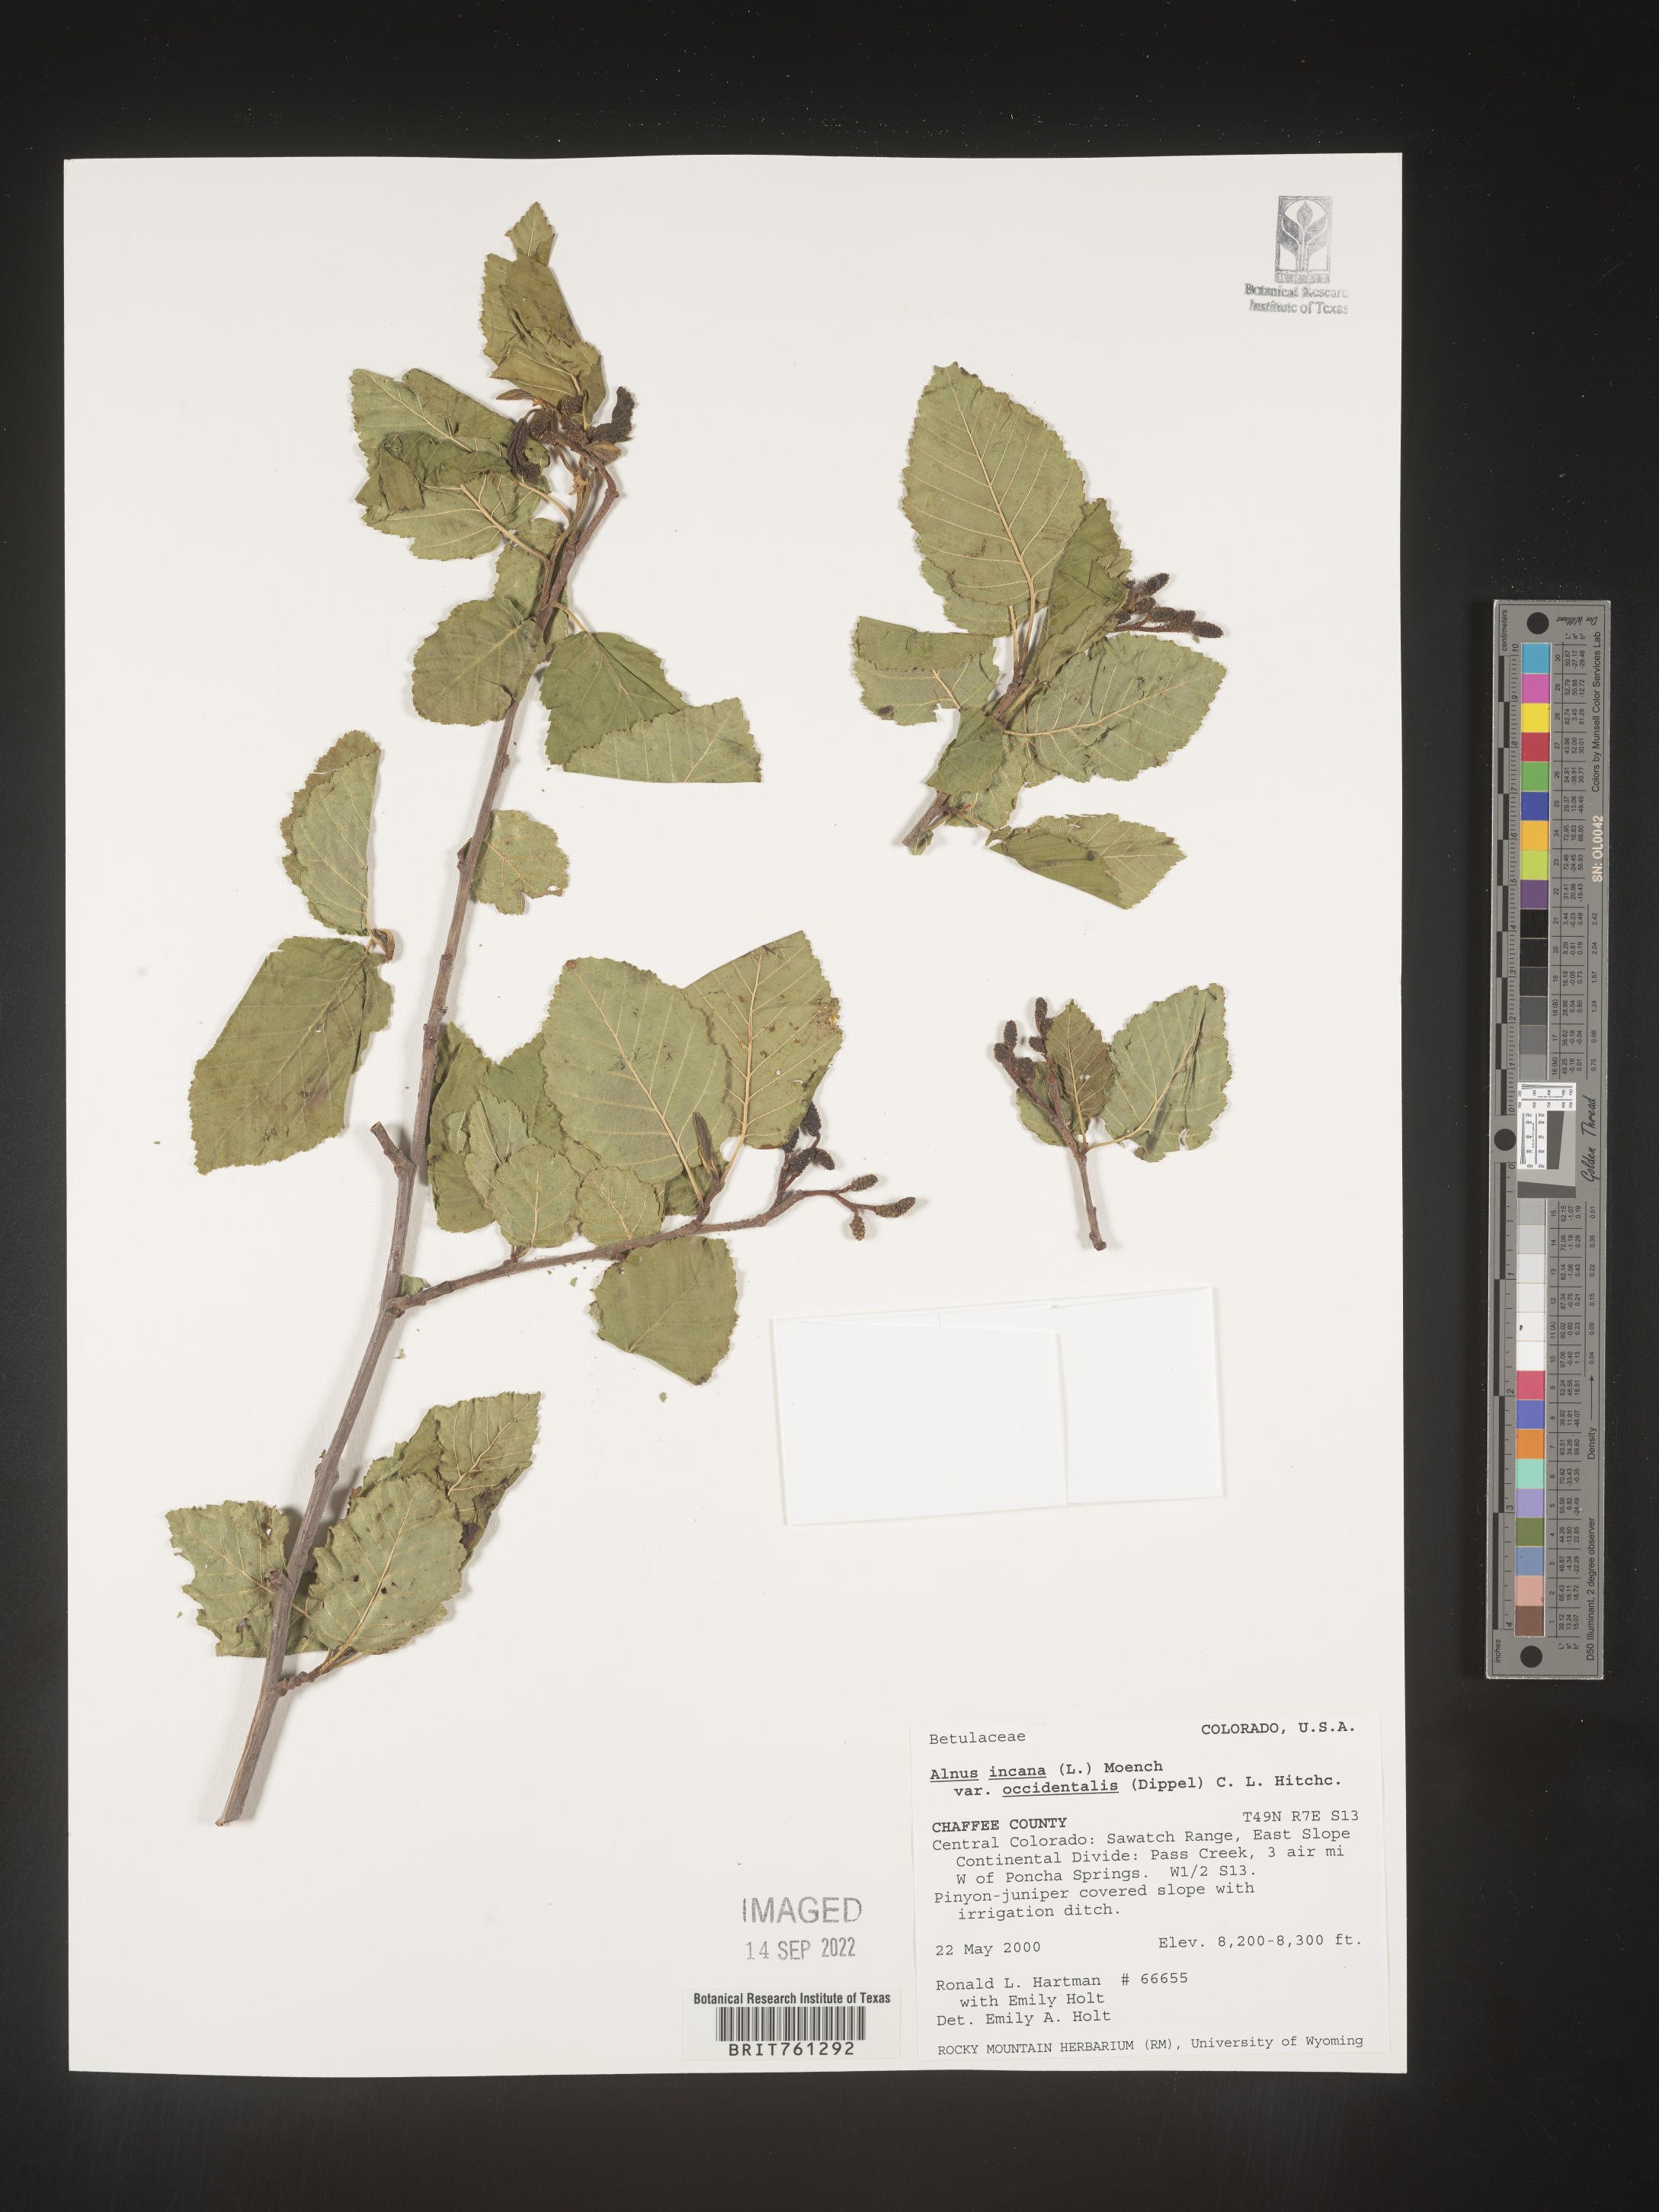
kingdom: Plantae
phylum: Tracheophyta
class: Magnoliopsida
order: Fagales
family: Betulaceae
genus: Alnus
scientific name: Alnus incana
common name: Grey alder
